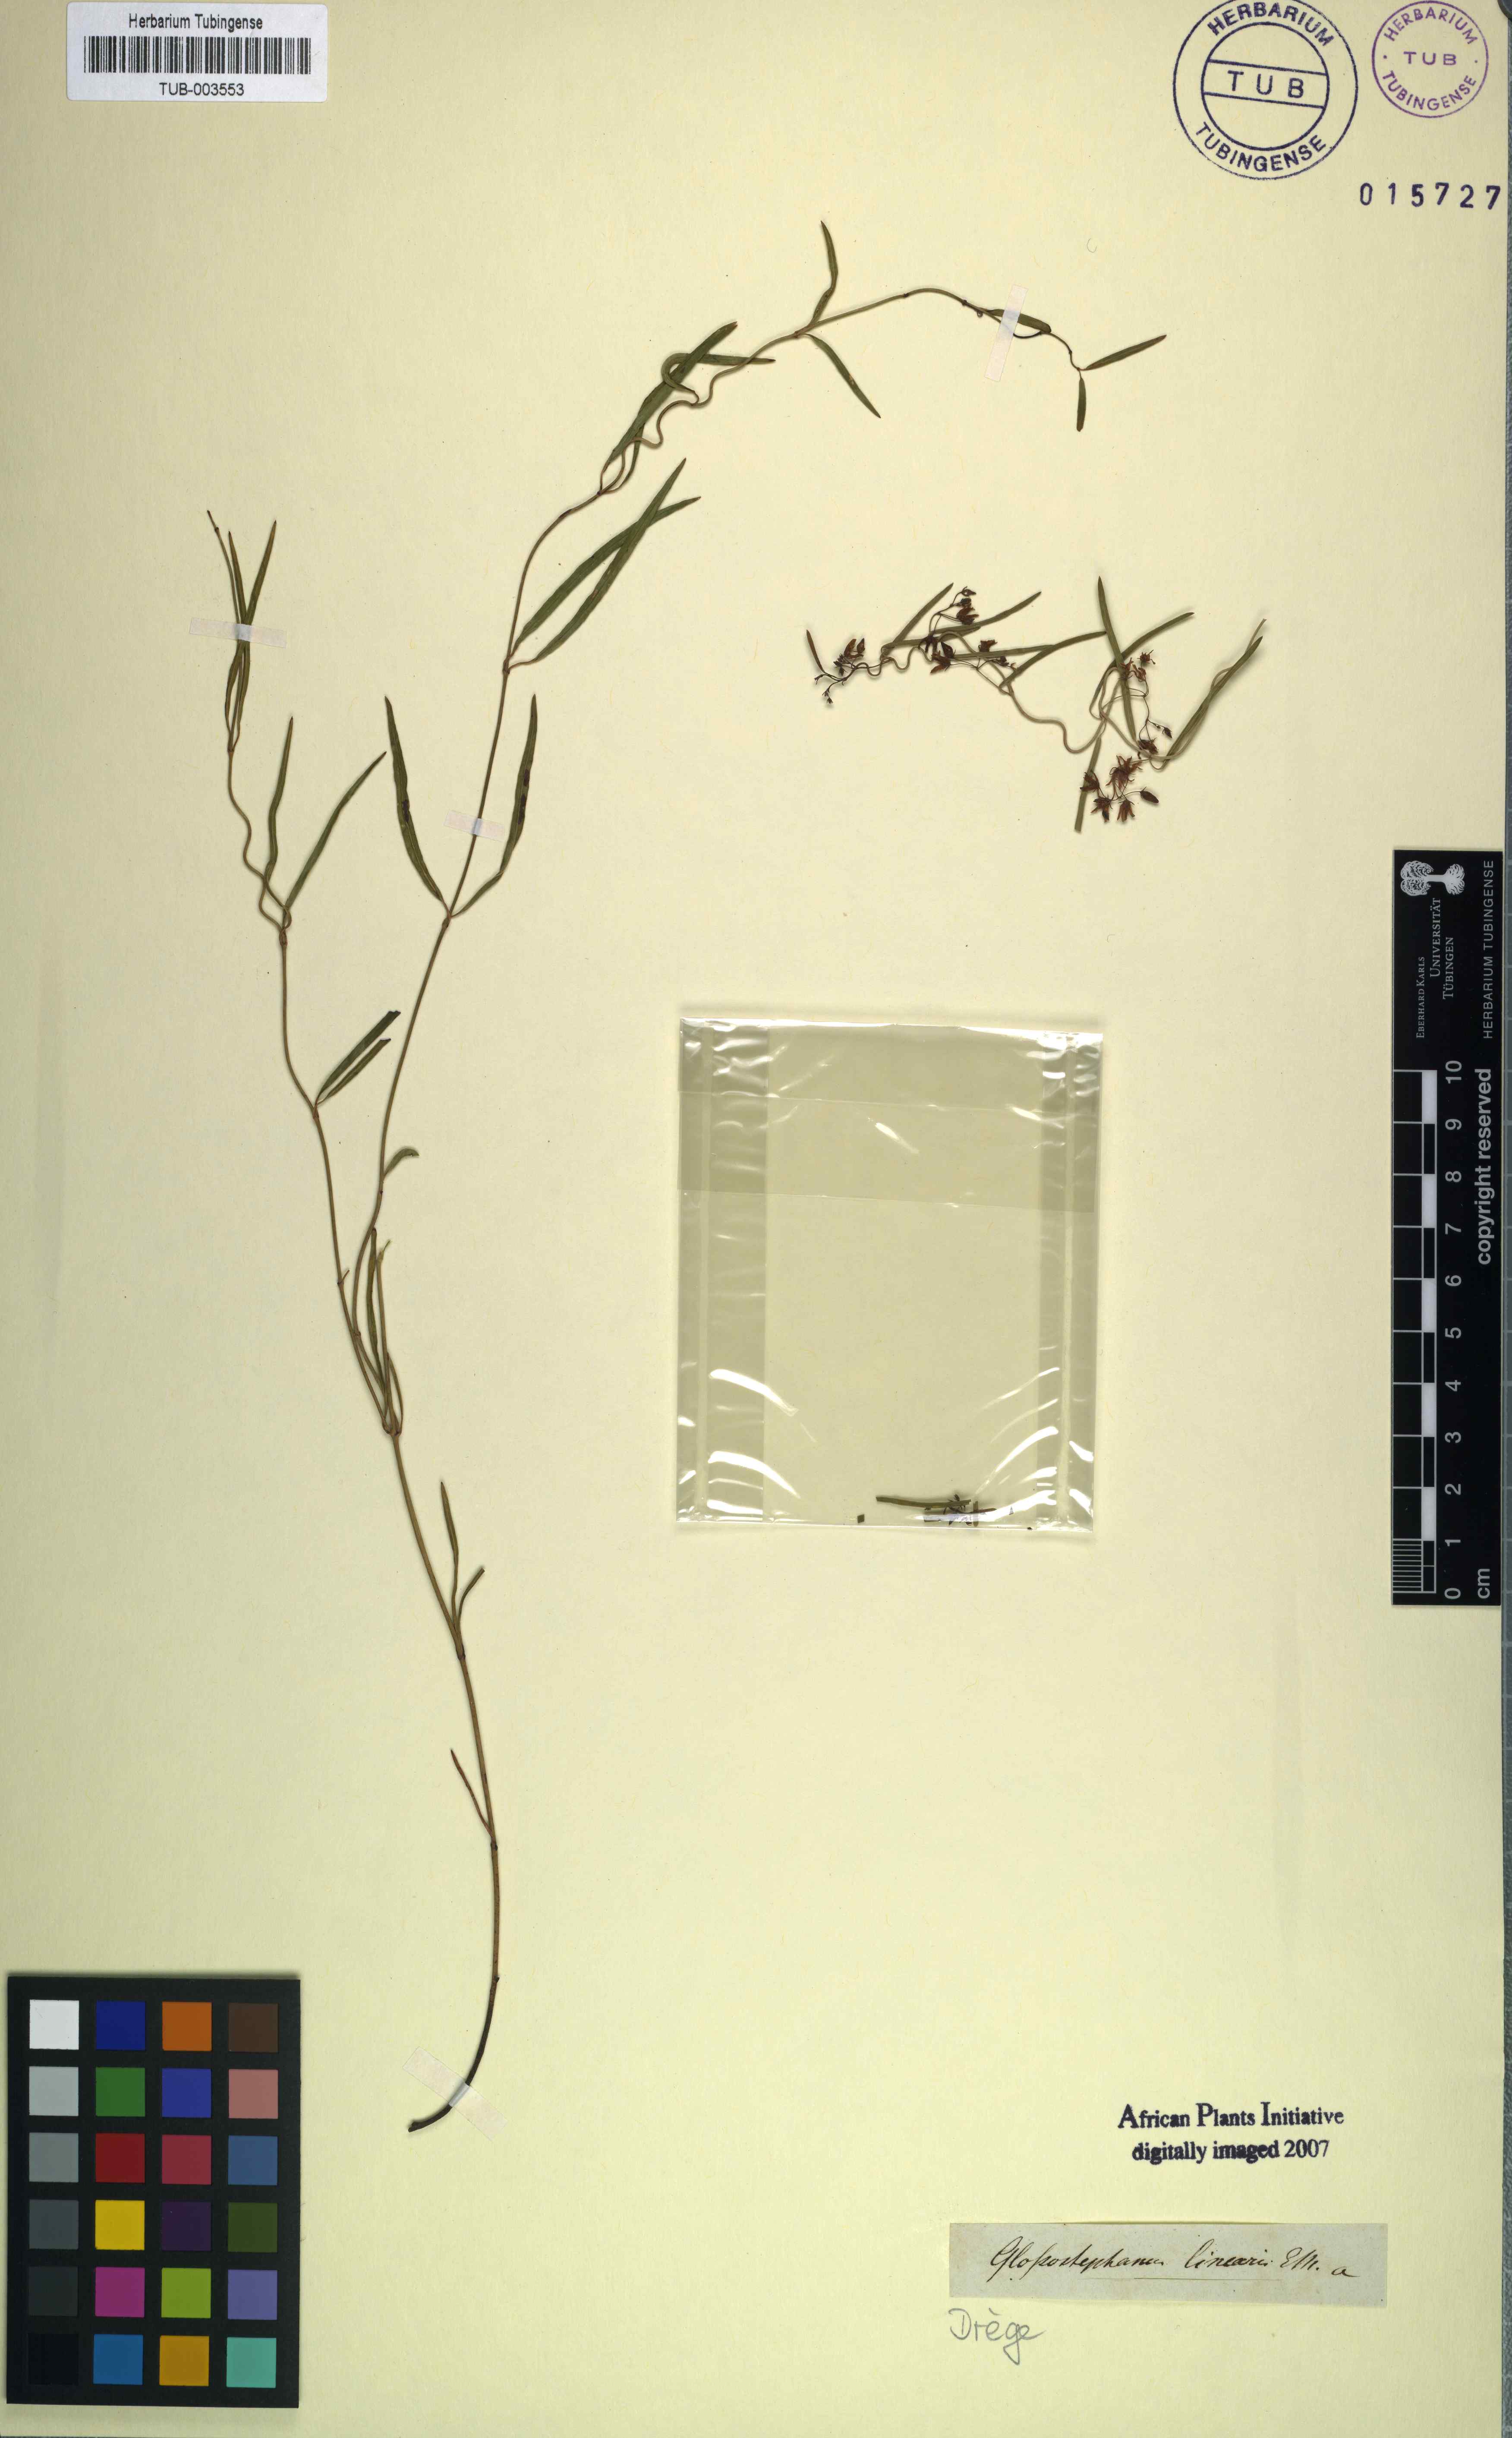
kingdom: Plantae
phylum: Tracheophyta
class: Magnoliopsida
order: Gentianales
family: Apocynaceae
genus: Oncinema
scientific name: Oncinema lineare
